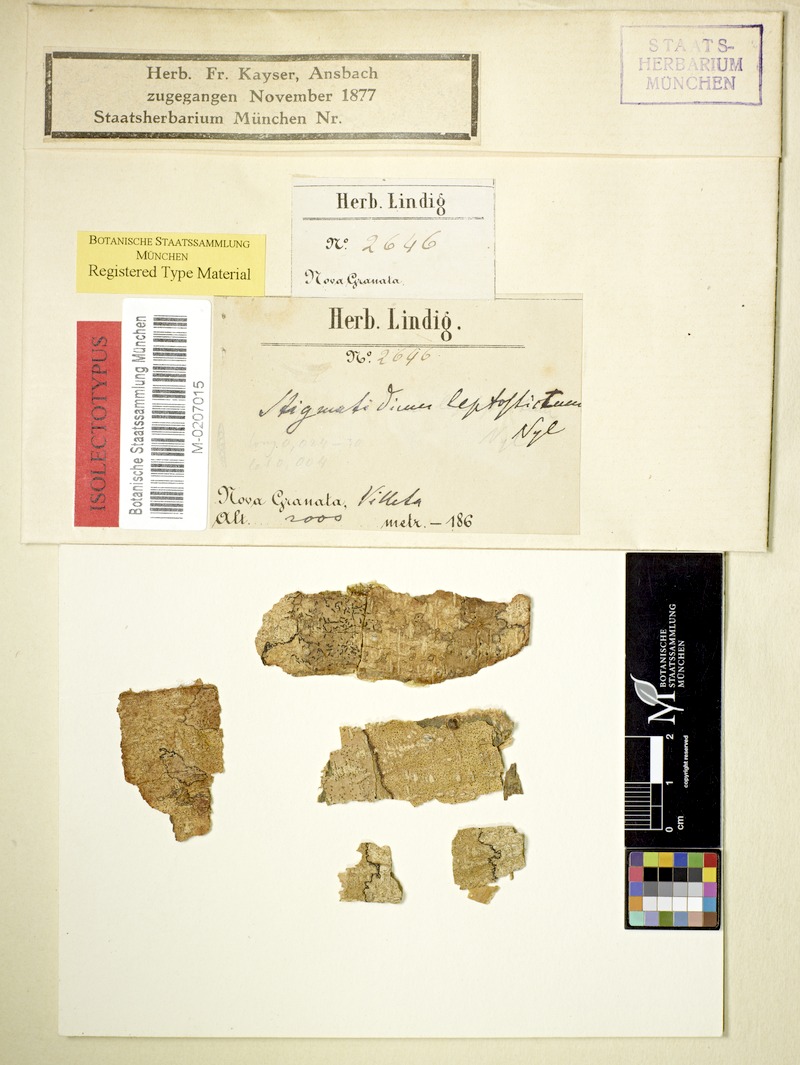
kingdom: Fungi
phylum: Ascomycota
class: Arthoniomycetes
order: Arthoniales
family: Roccellaceae
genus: Mazosia
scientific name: Mazosia leptosticta
